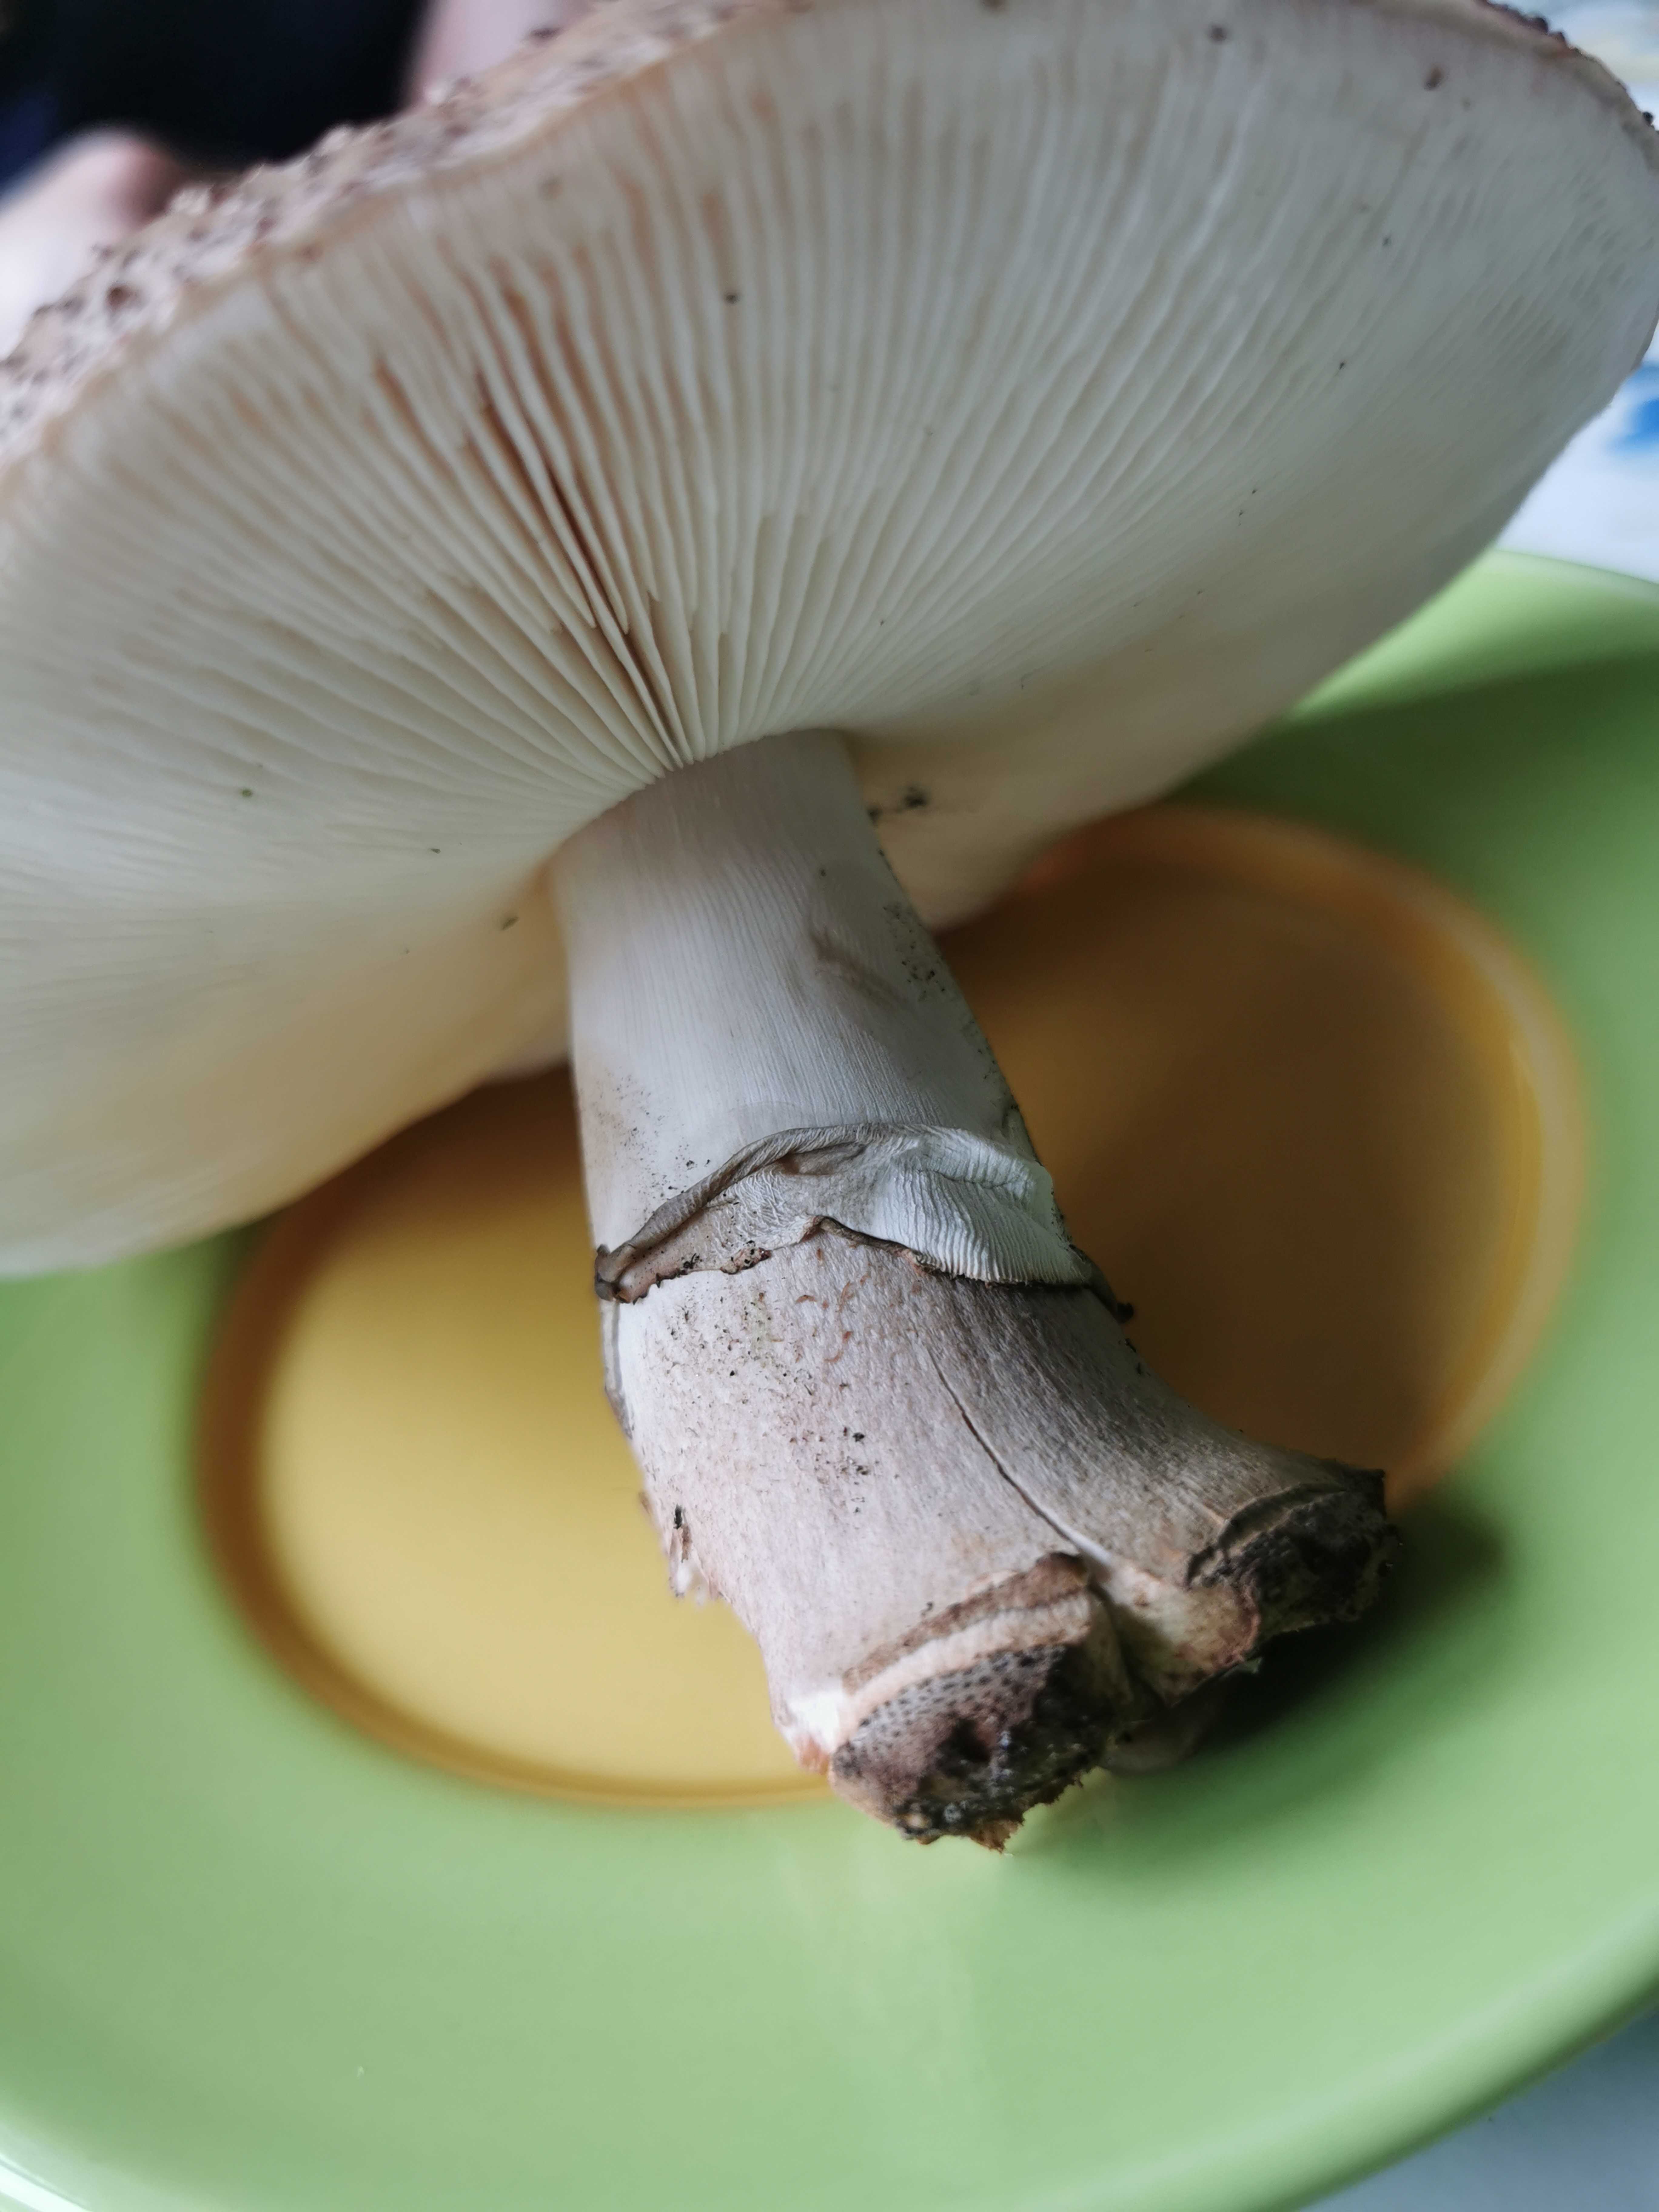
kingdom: Fungi
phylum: Basidiomycota
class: Agaricomycetes
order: Agaricales
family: Amanitaceae
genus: Amanita
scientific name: Amanita rubescens
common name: rødmende fluesvamp
